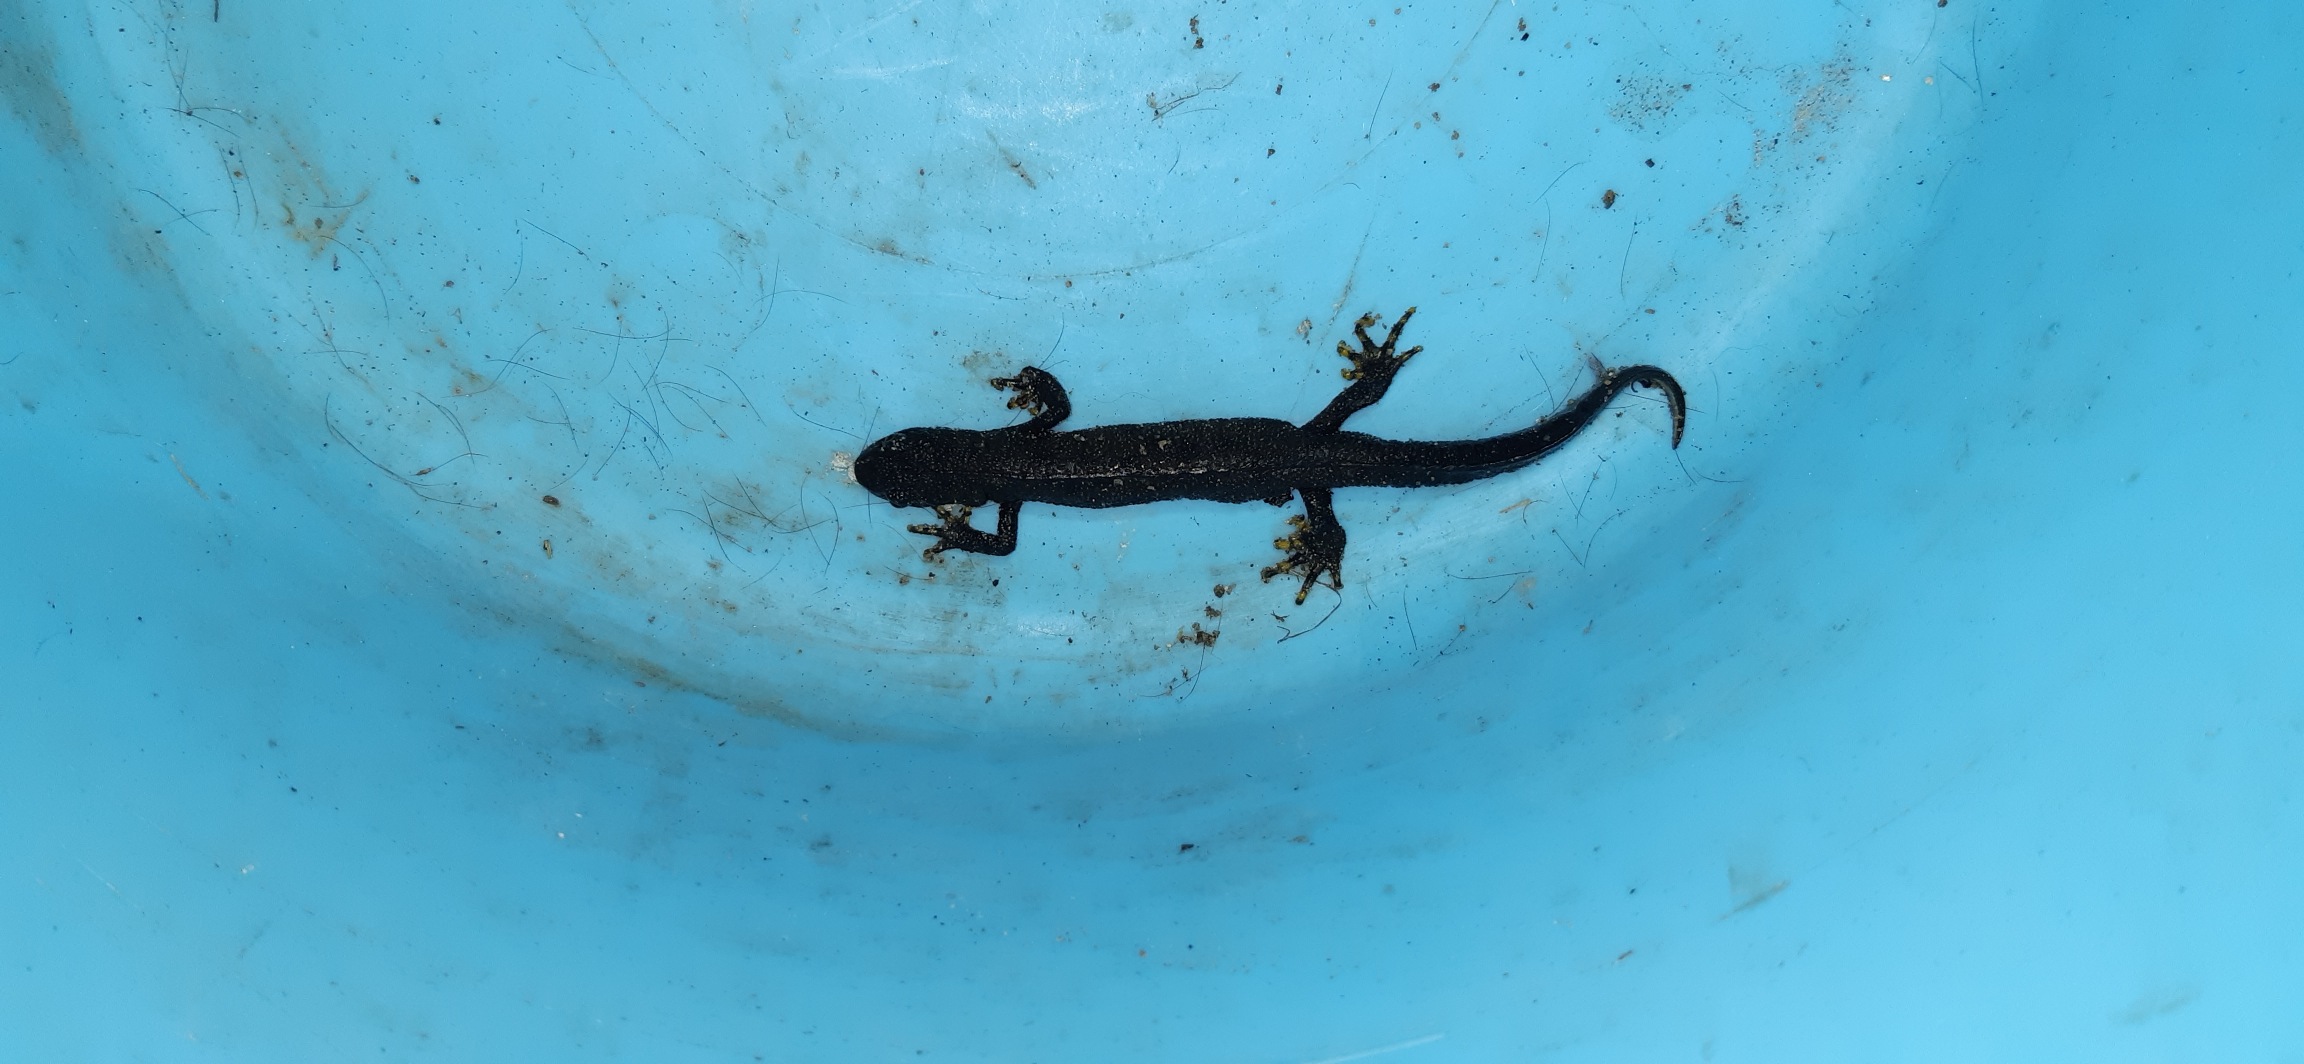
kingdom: Animalia
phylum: Chordata
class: Amphibia
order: Caudata
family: Salamandridae
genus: Triturus
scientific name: Triturus cristatus
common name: Stor vandsalamander
